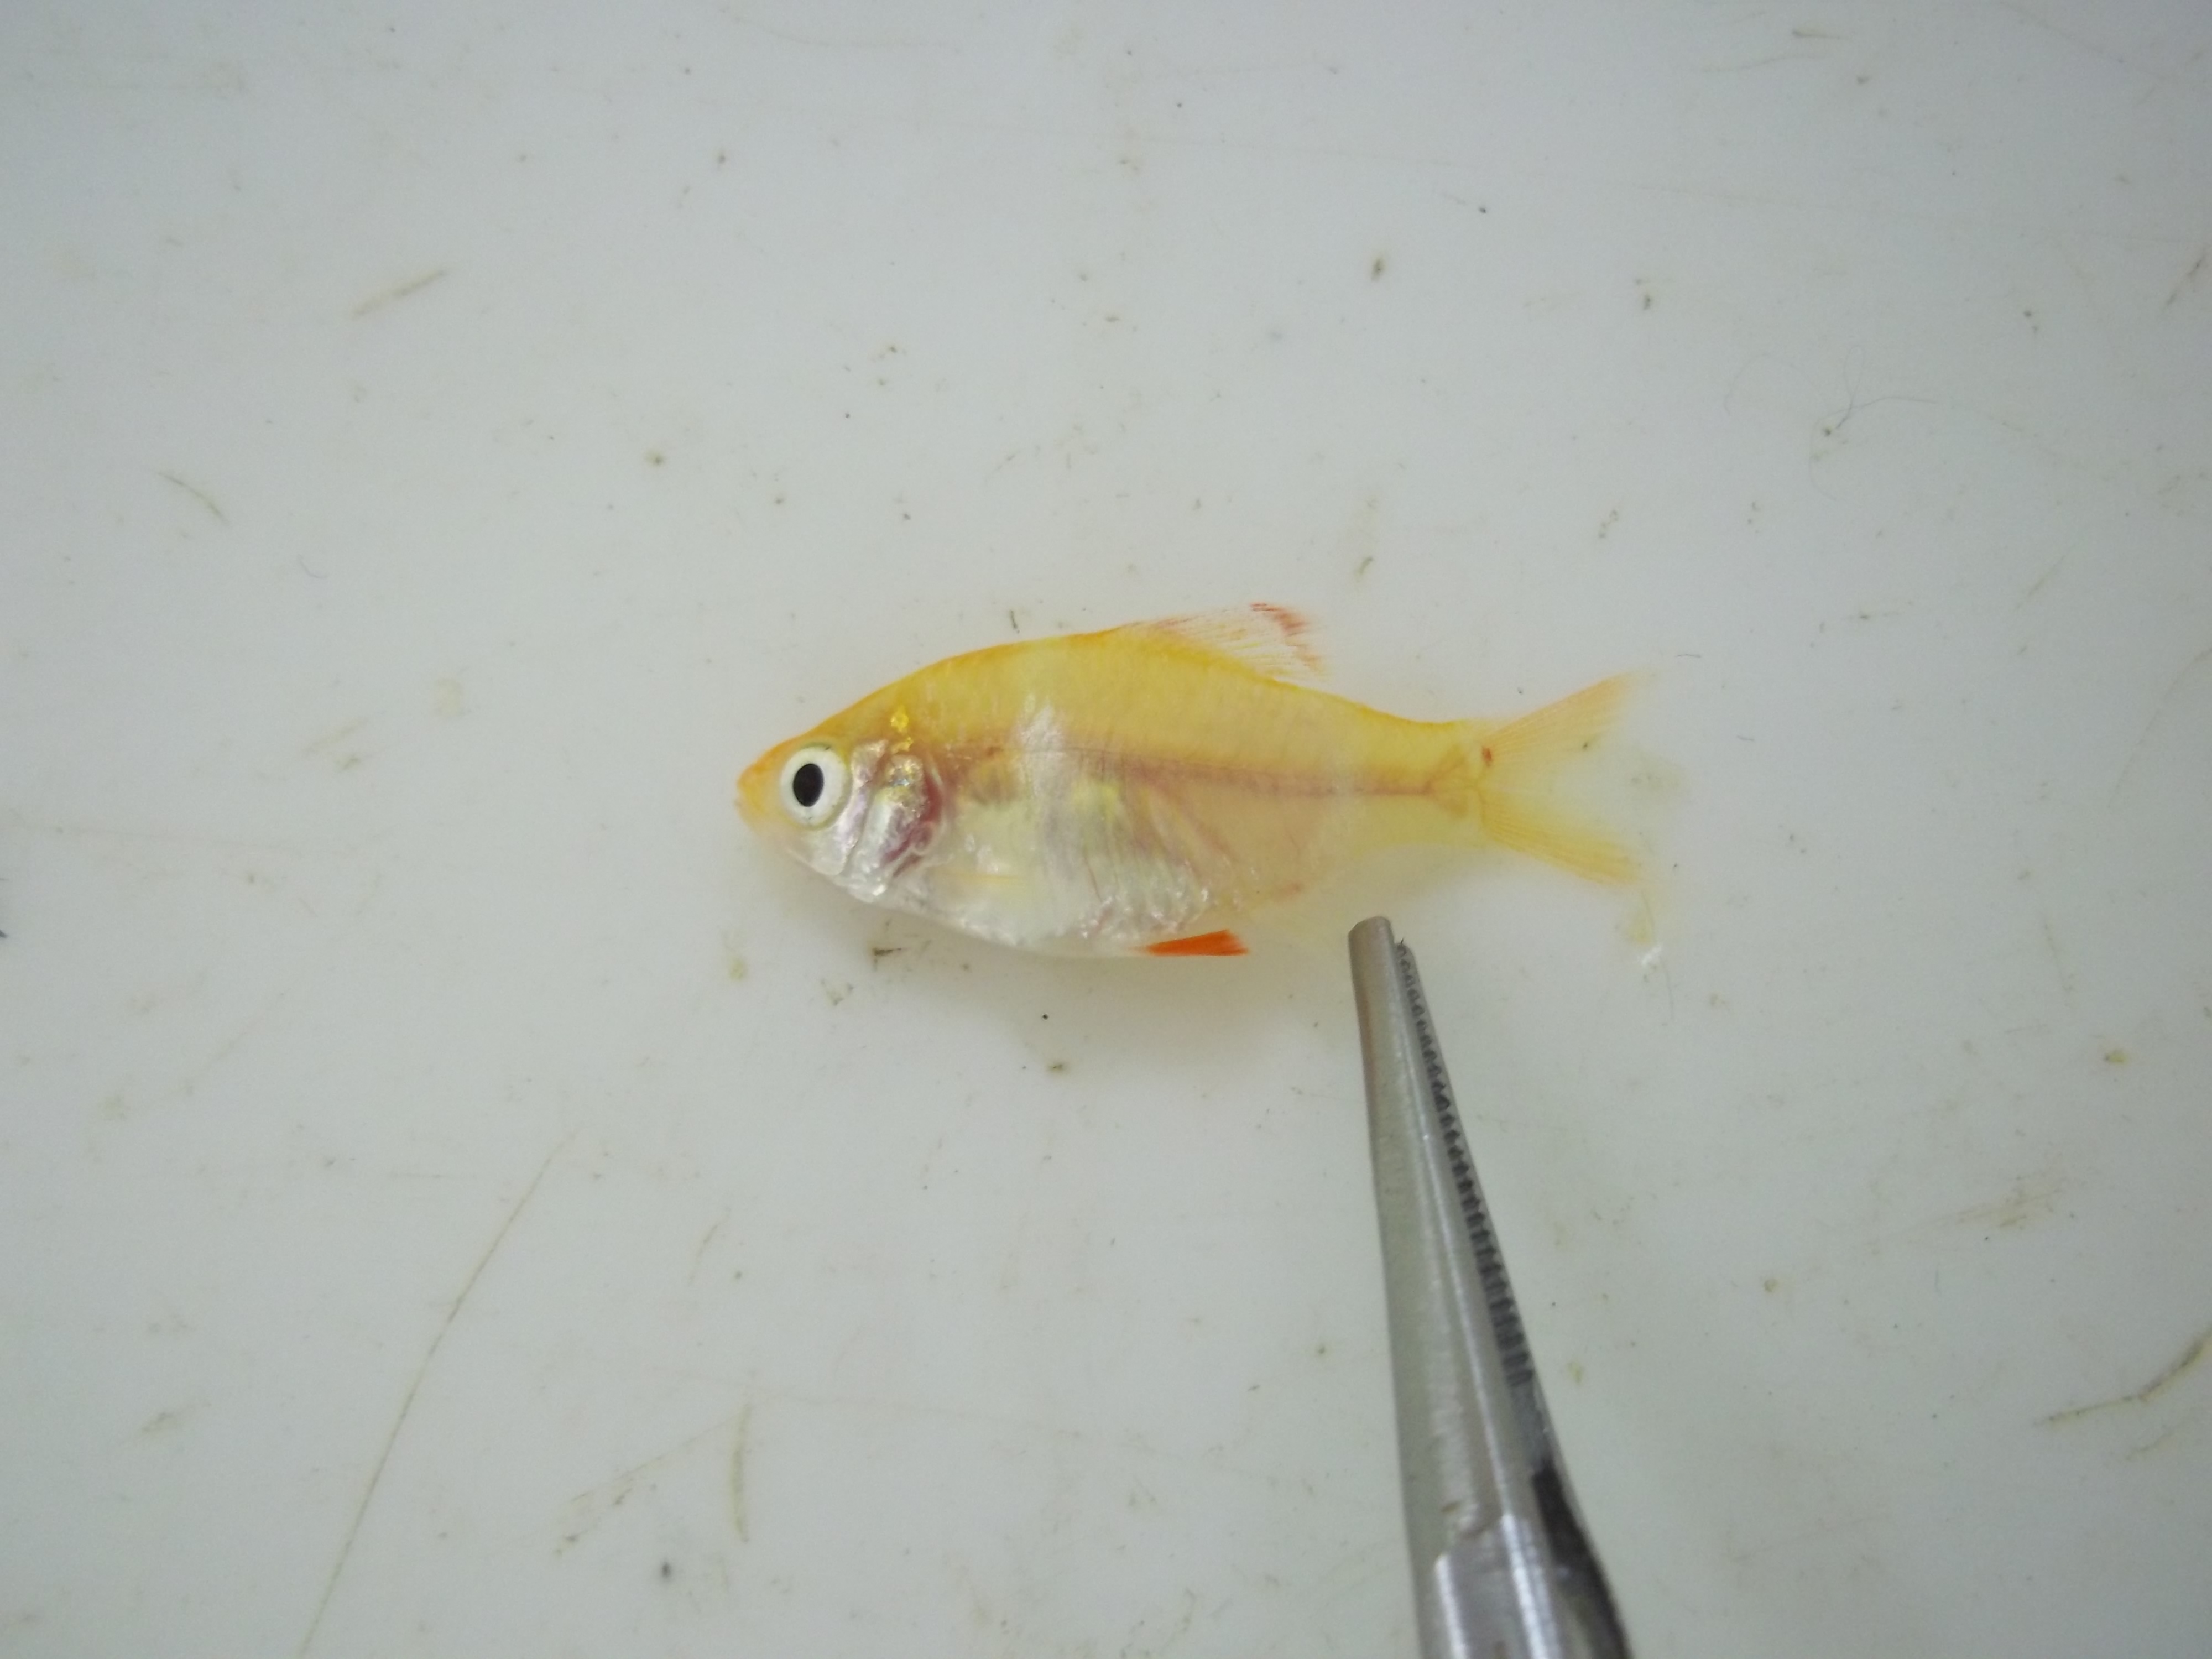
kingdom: Animalia
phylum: Chordata
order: Cypriniformes
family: Cyprinidae
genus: Puntigrus
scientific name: Puntigrus tetrazona
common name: Tiger barb
